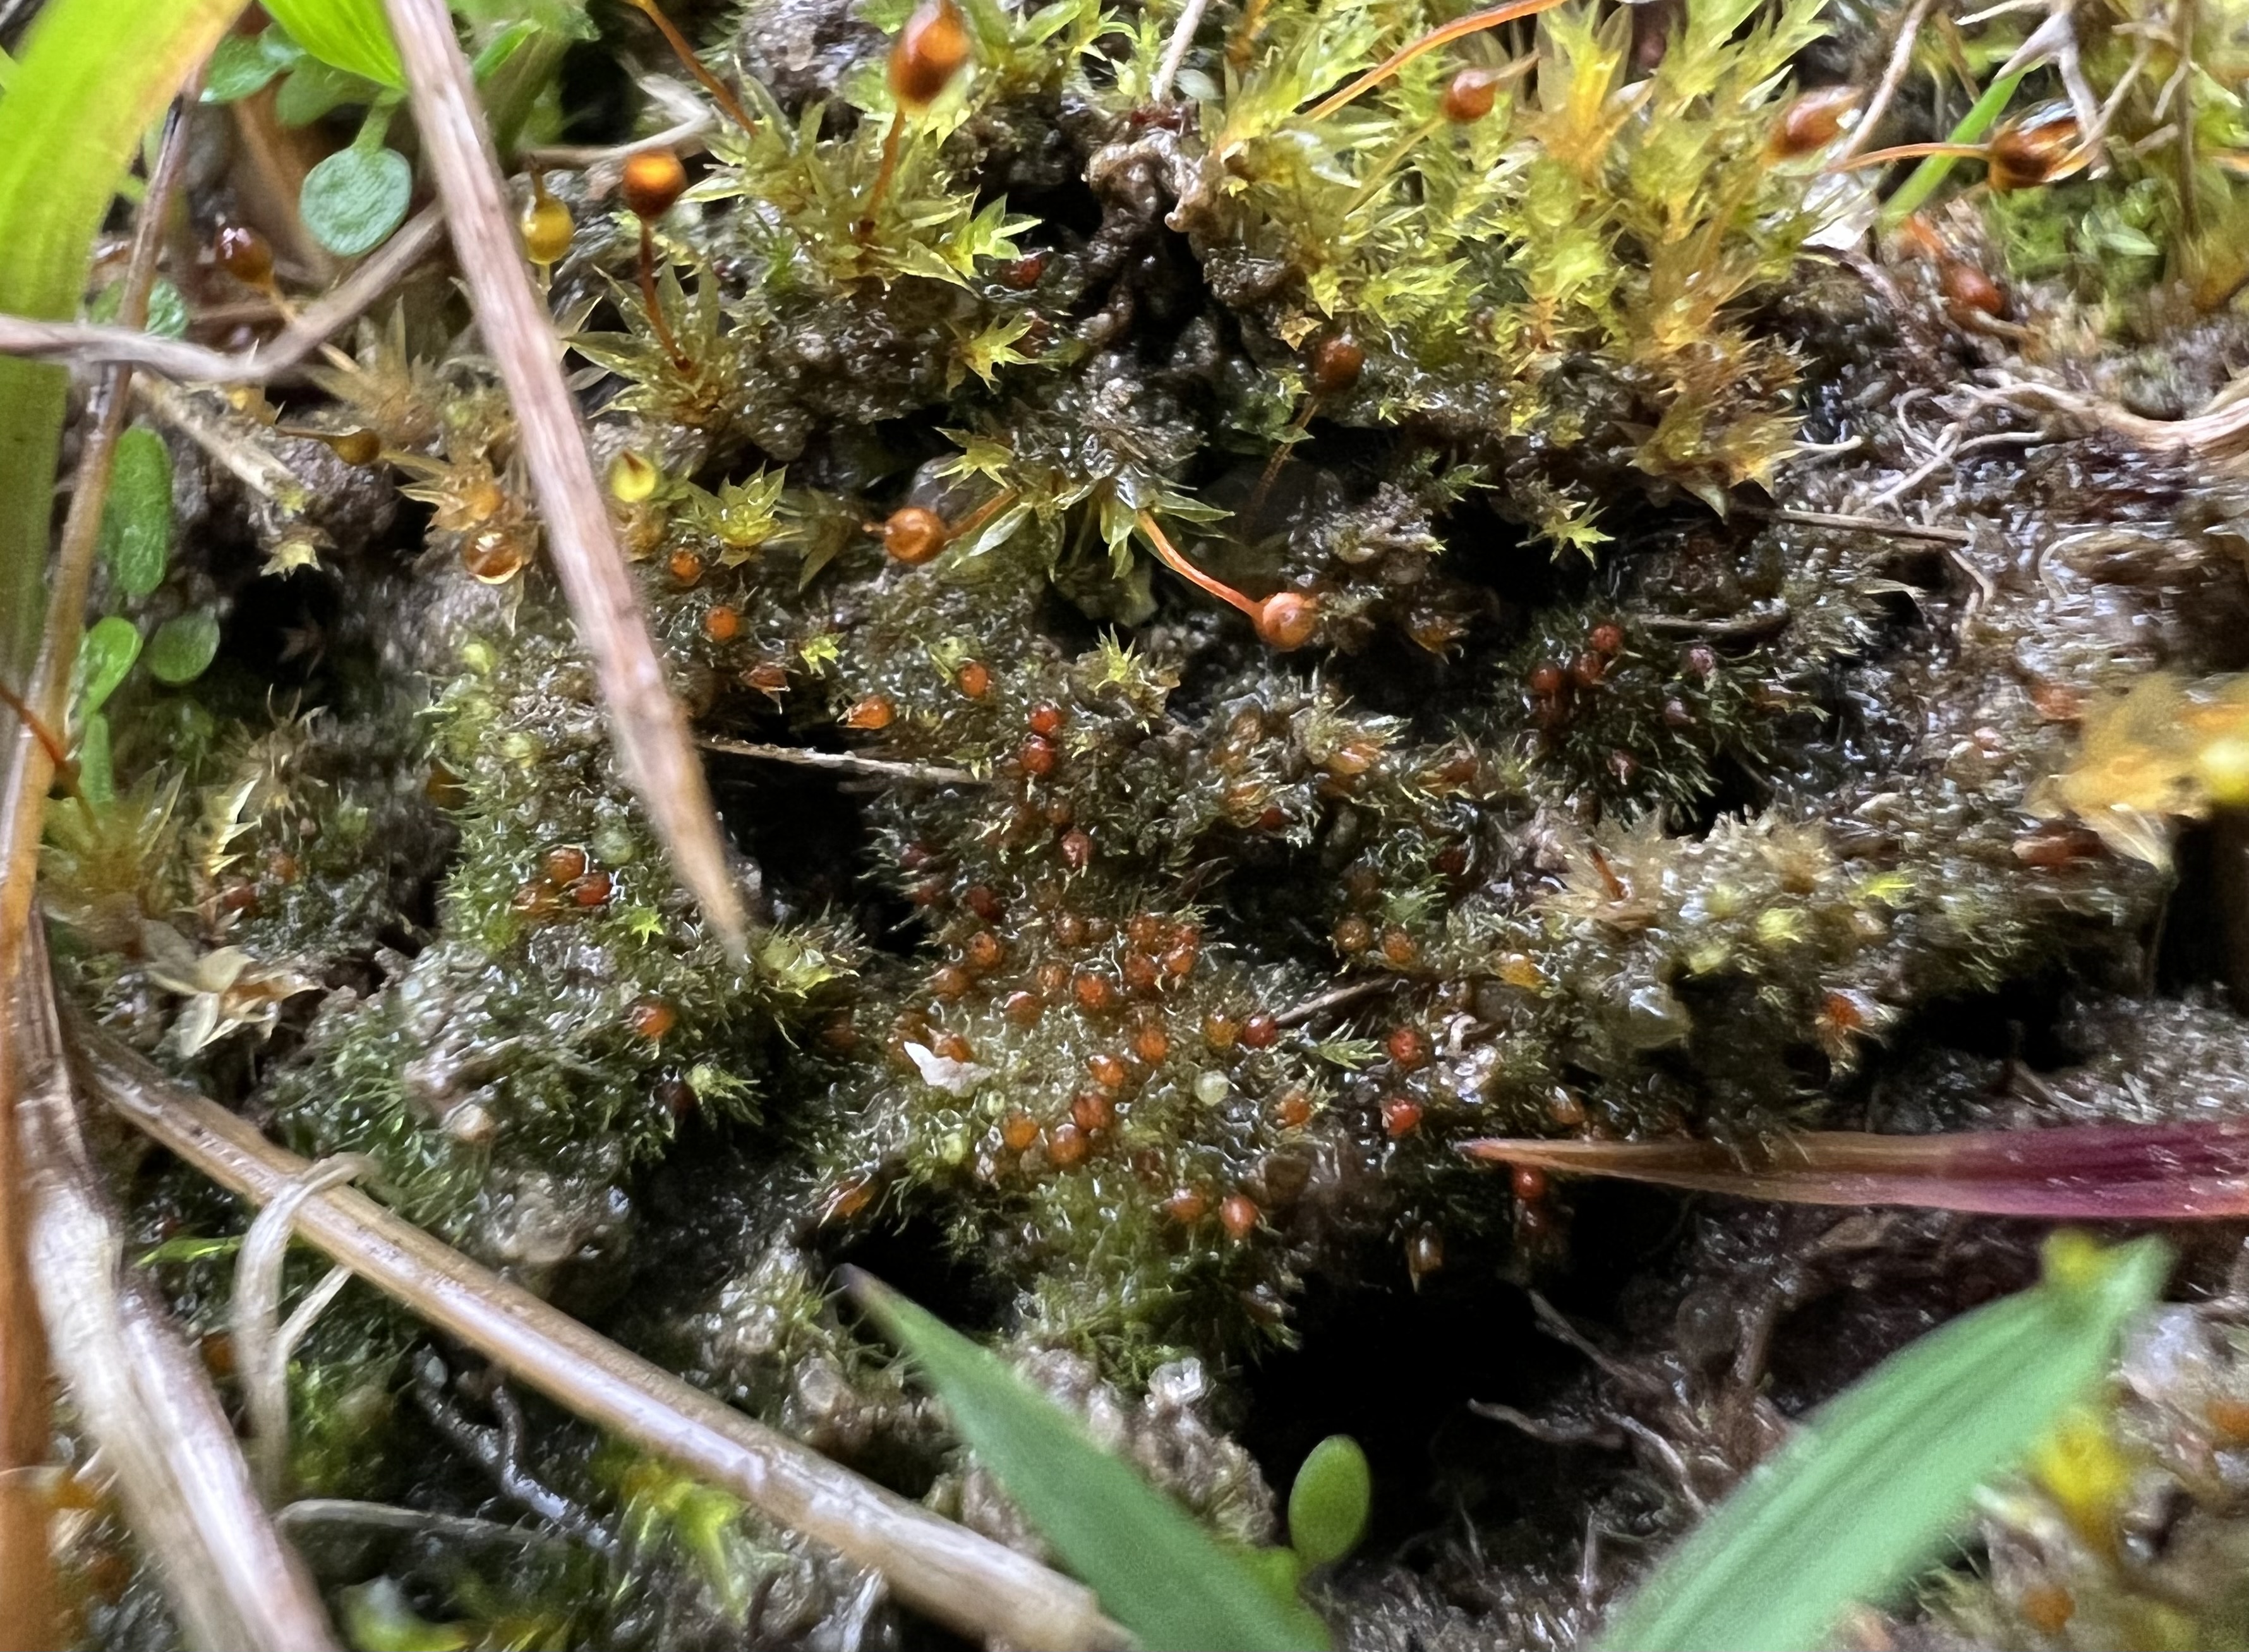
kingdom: Plantae
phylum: Bryophyta
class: Bryopsida
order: Pottiales
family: Ephemeraceae
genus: Ephemerum
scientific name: Ephemerum serratum
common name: Glat døgnmos
